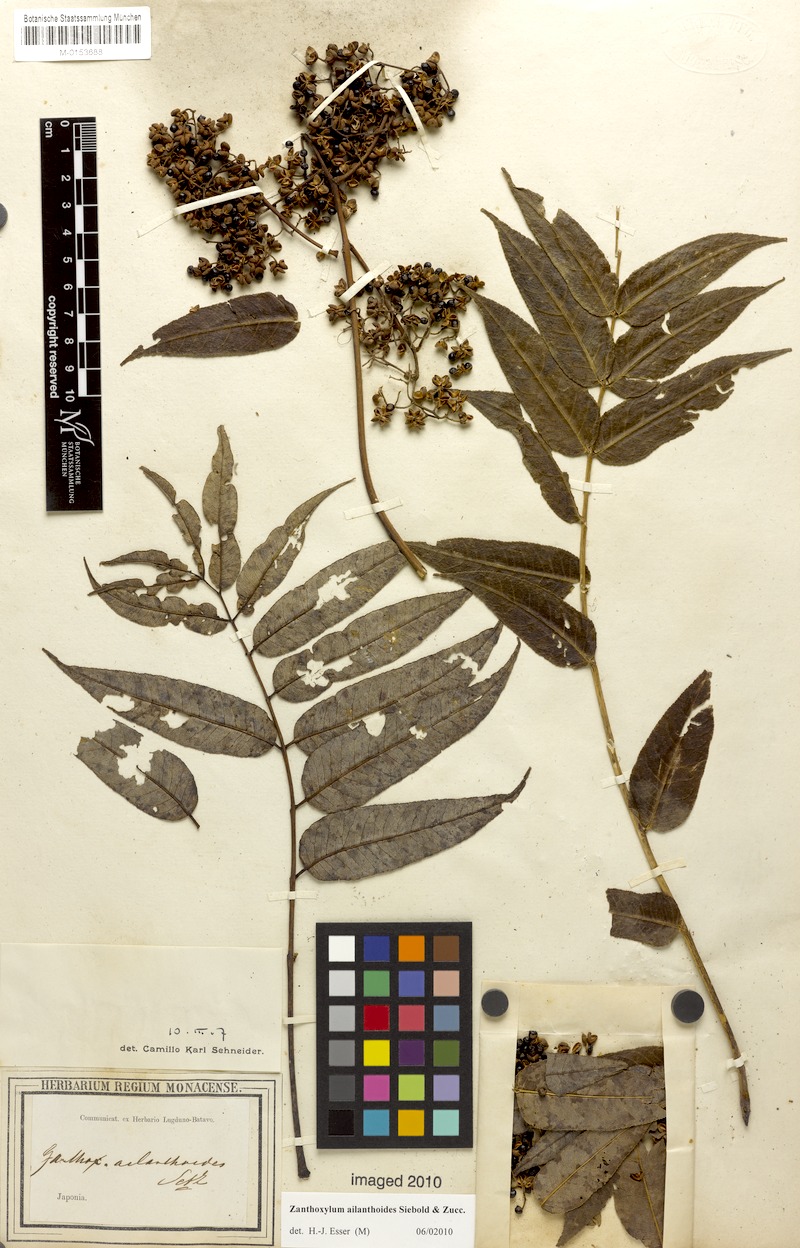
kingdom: Plantae
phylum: Tracheophyta
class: Magnoliopsida
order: Sapindales
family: Rutaceae
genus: Zanthoxylum
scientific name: Zanthoxylum ailanthoides
